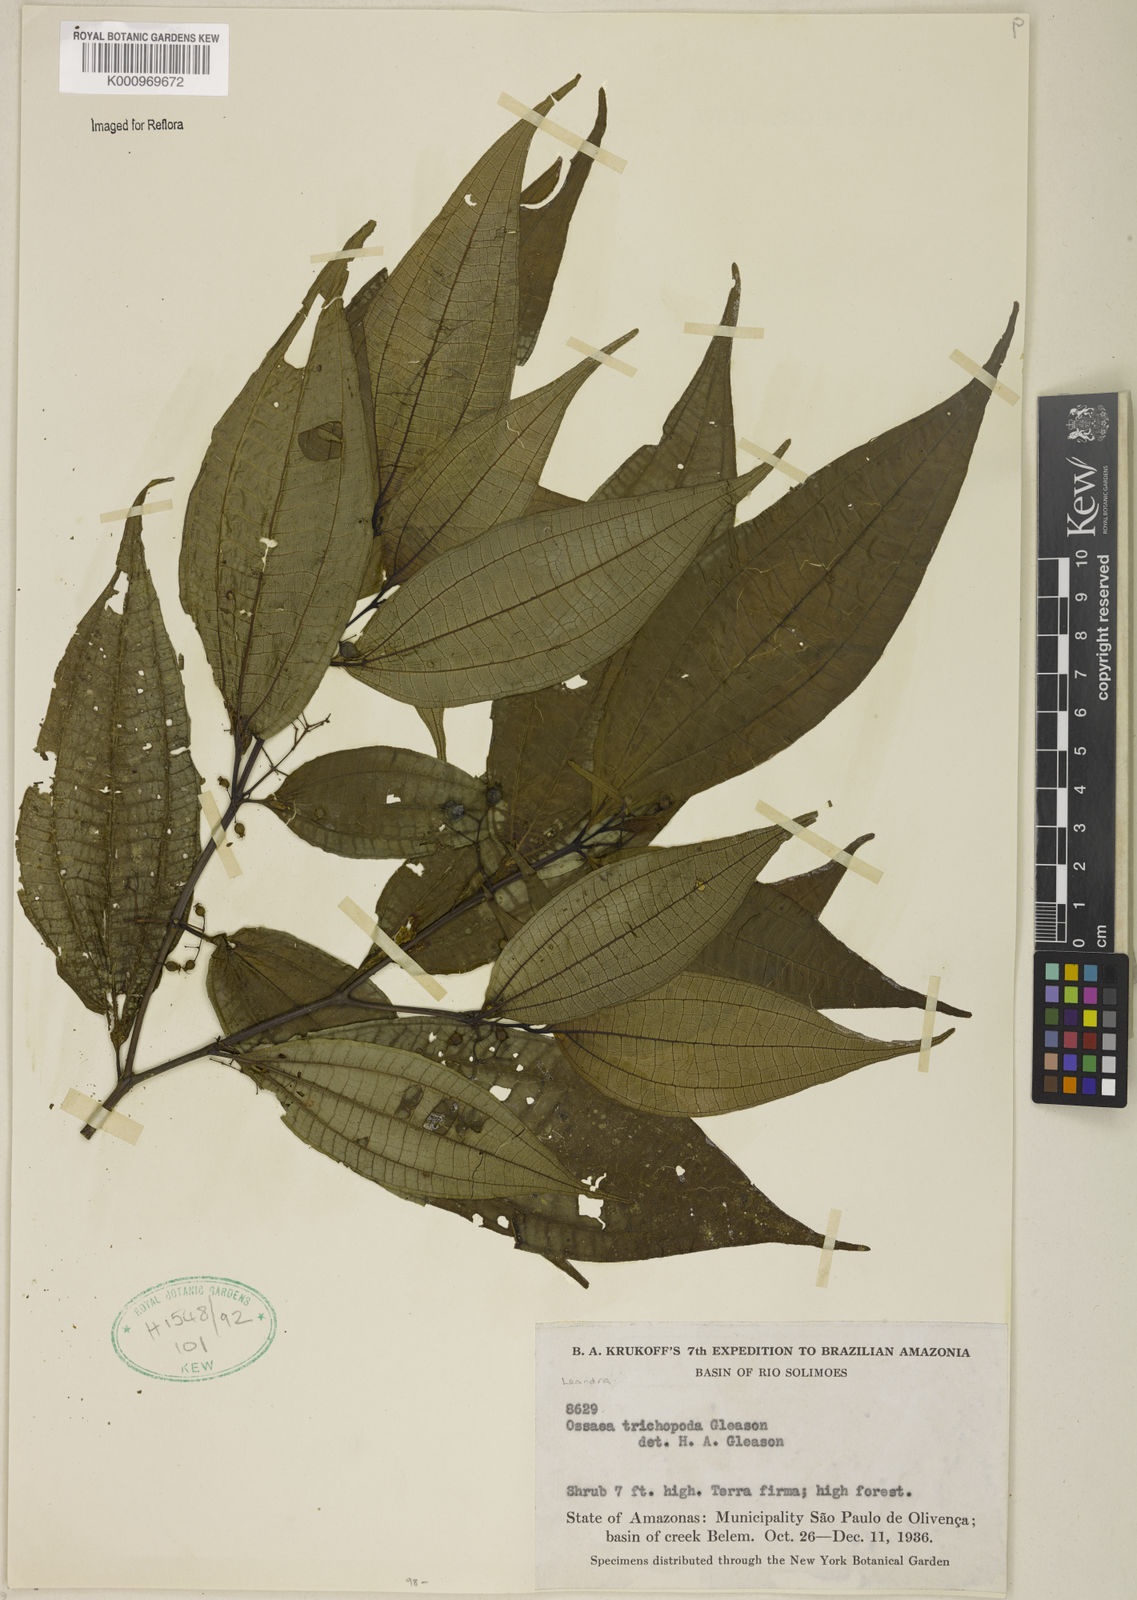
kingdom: Plantae
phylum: Tracheophyta
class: Magnoliopsida
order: Myrtales
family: Melastomataceae
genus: Miconia
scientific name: Miconia chaetodonta
